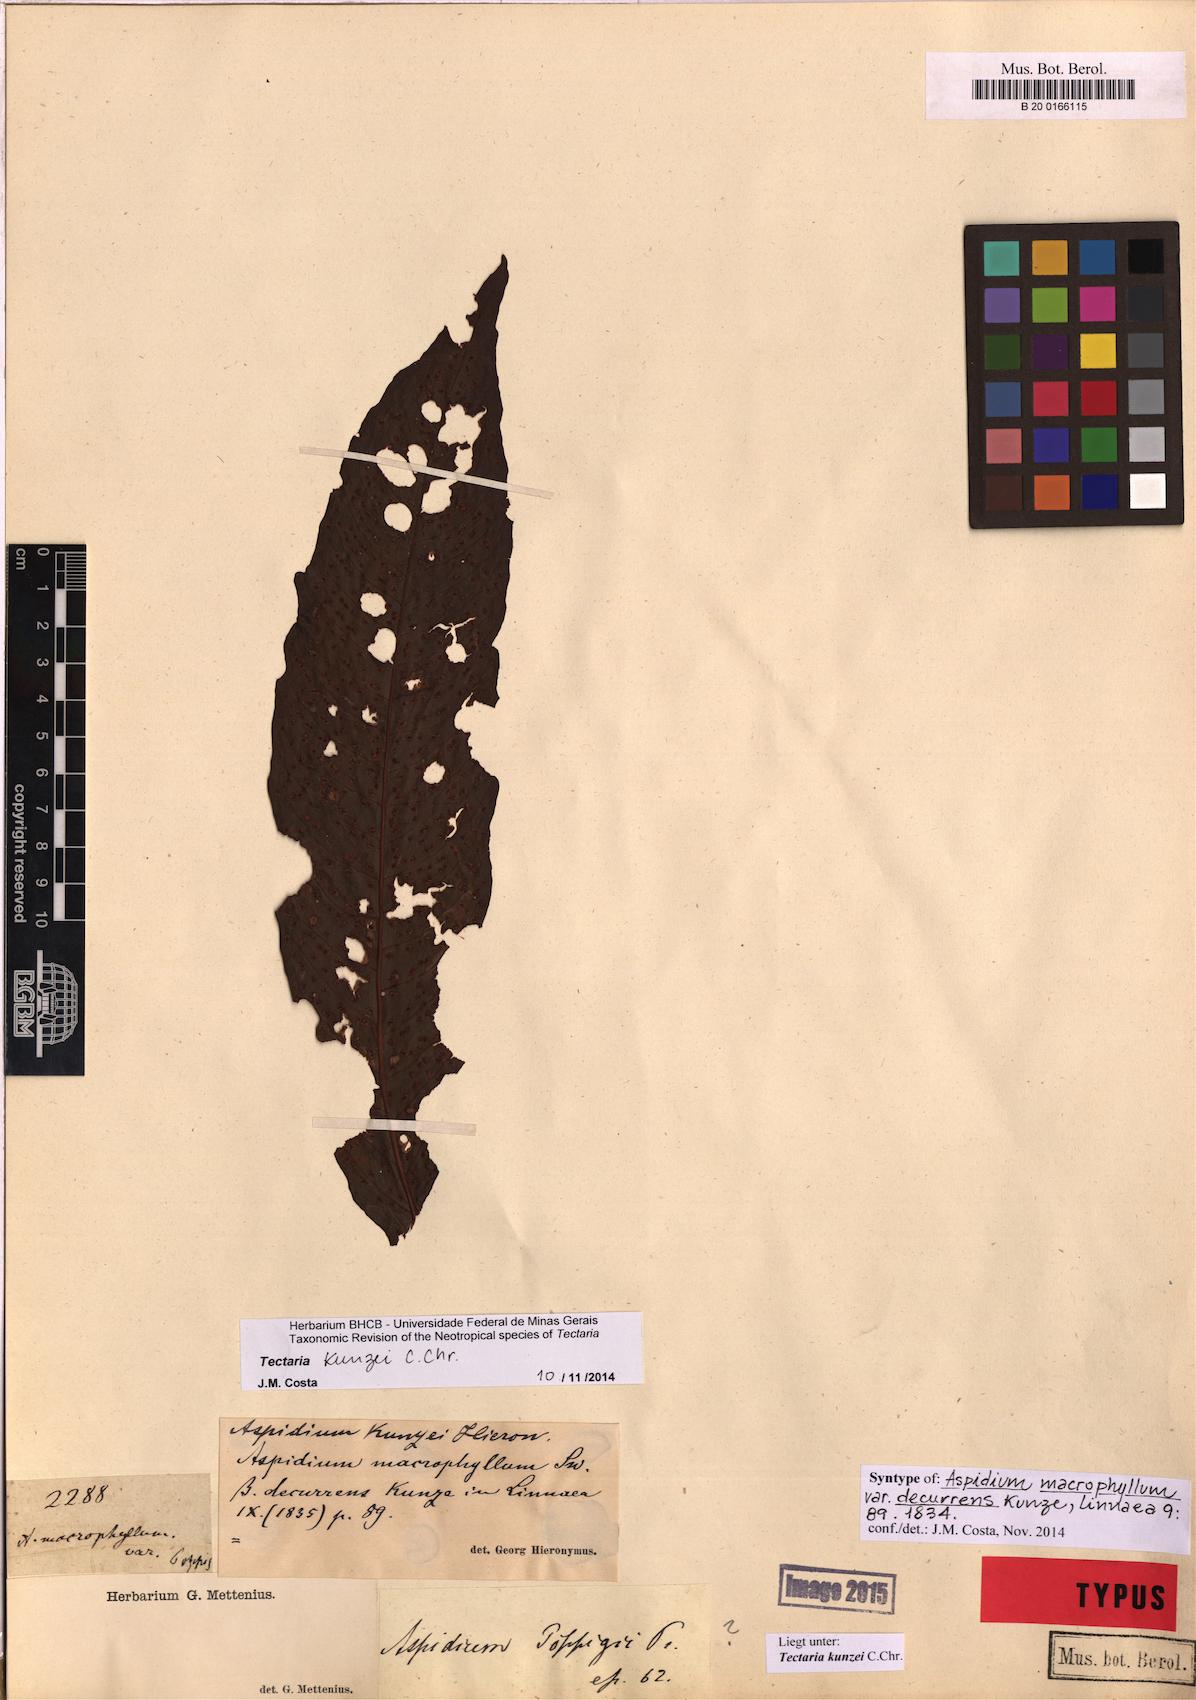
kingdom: Plantae
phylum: Tracheophyta
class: Polypodiopsida
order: Polypodiales
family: Tectariaceae
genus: Tectaria
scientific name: Tectaria kunzei
